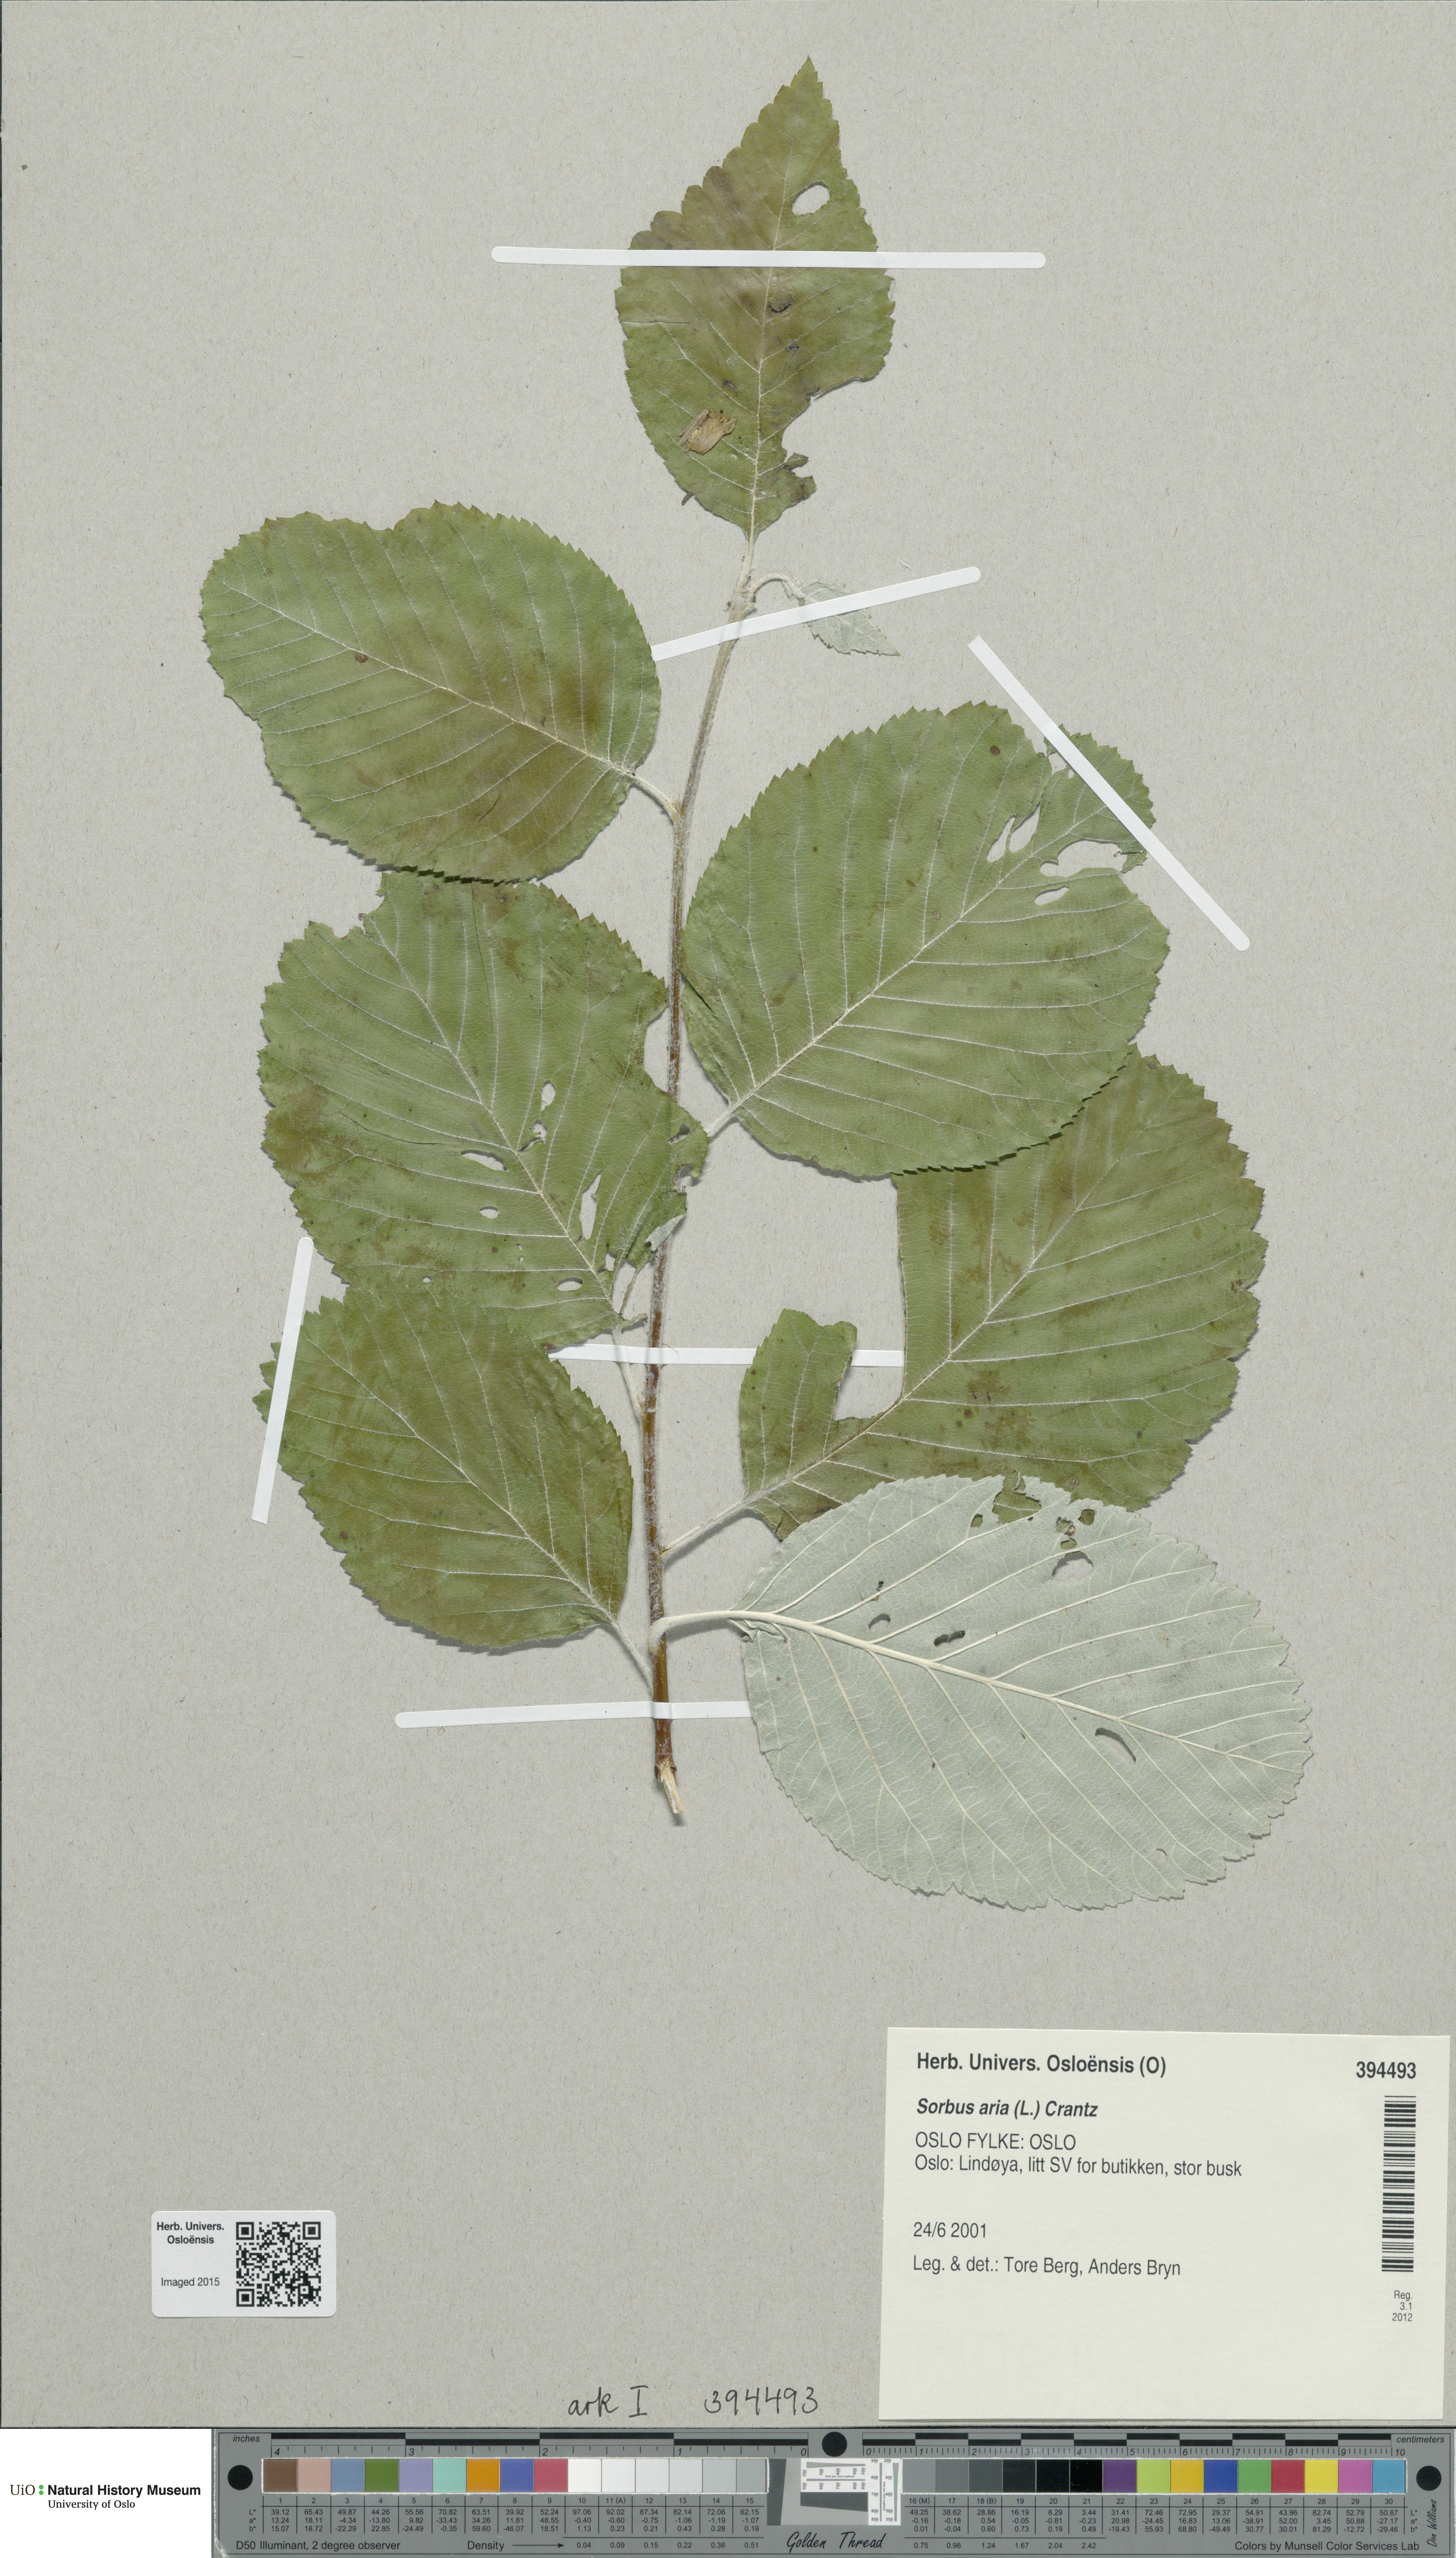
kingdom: Plantae
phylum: Tracheophyta
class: Magnoliopsida
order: Rosales
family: Rosaceae
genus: Aria
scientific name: Aria edulis
